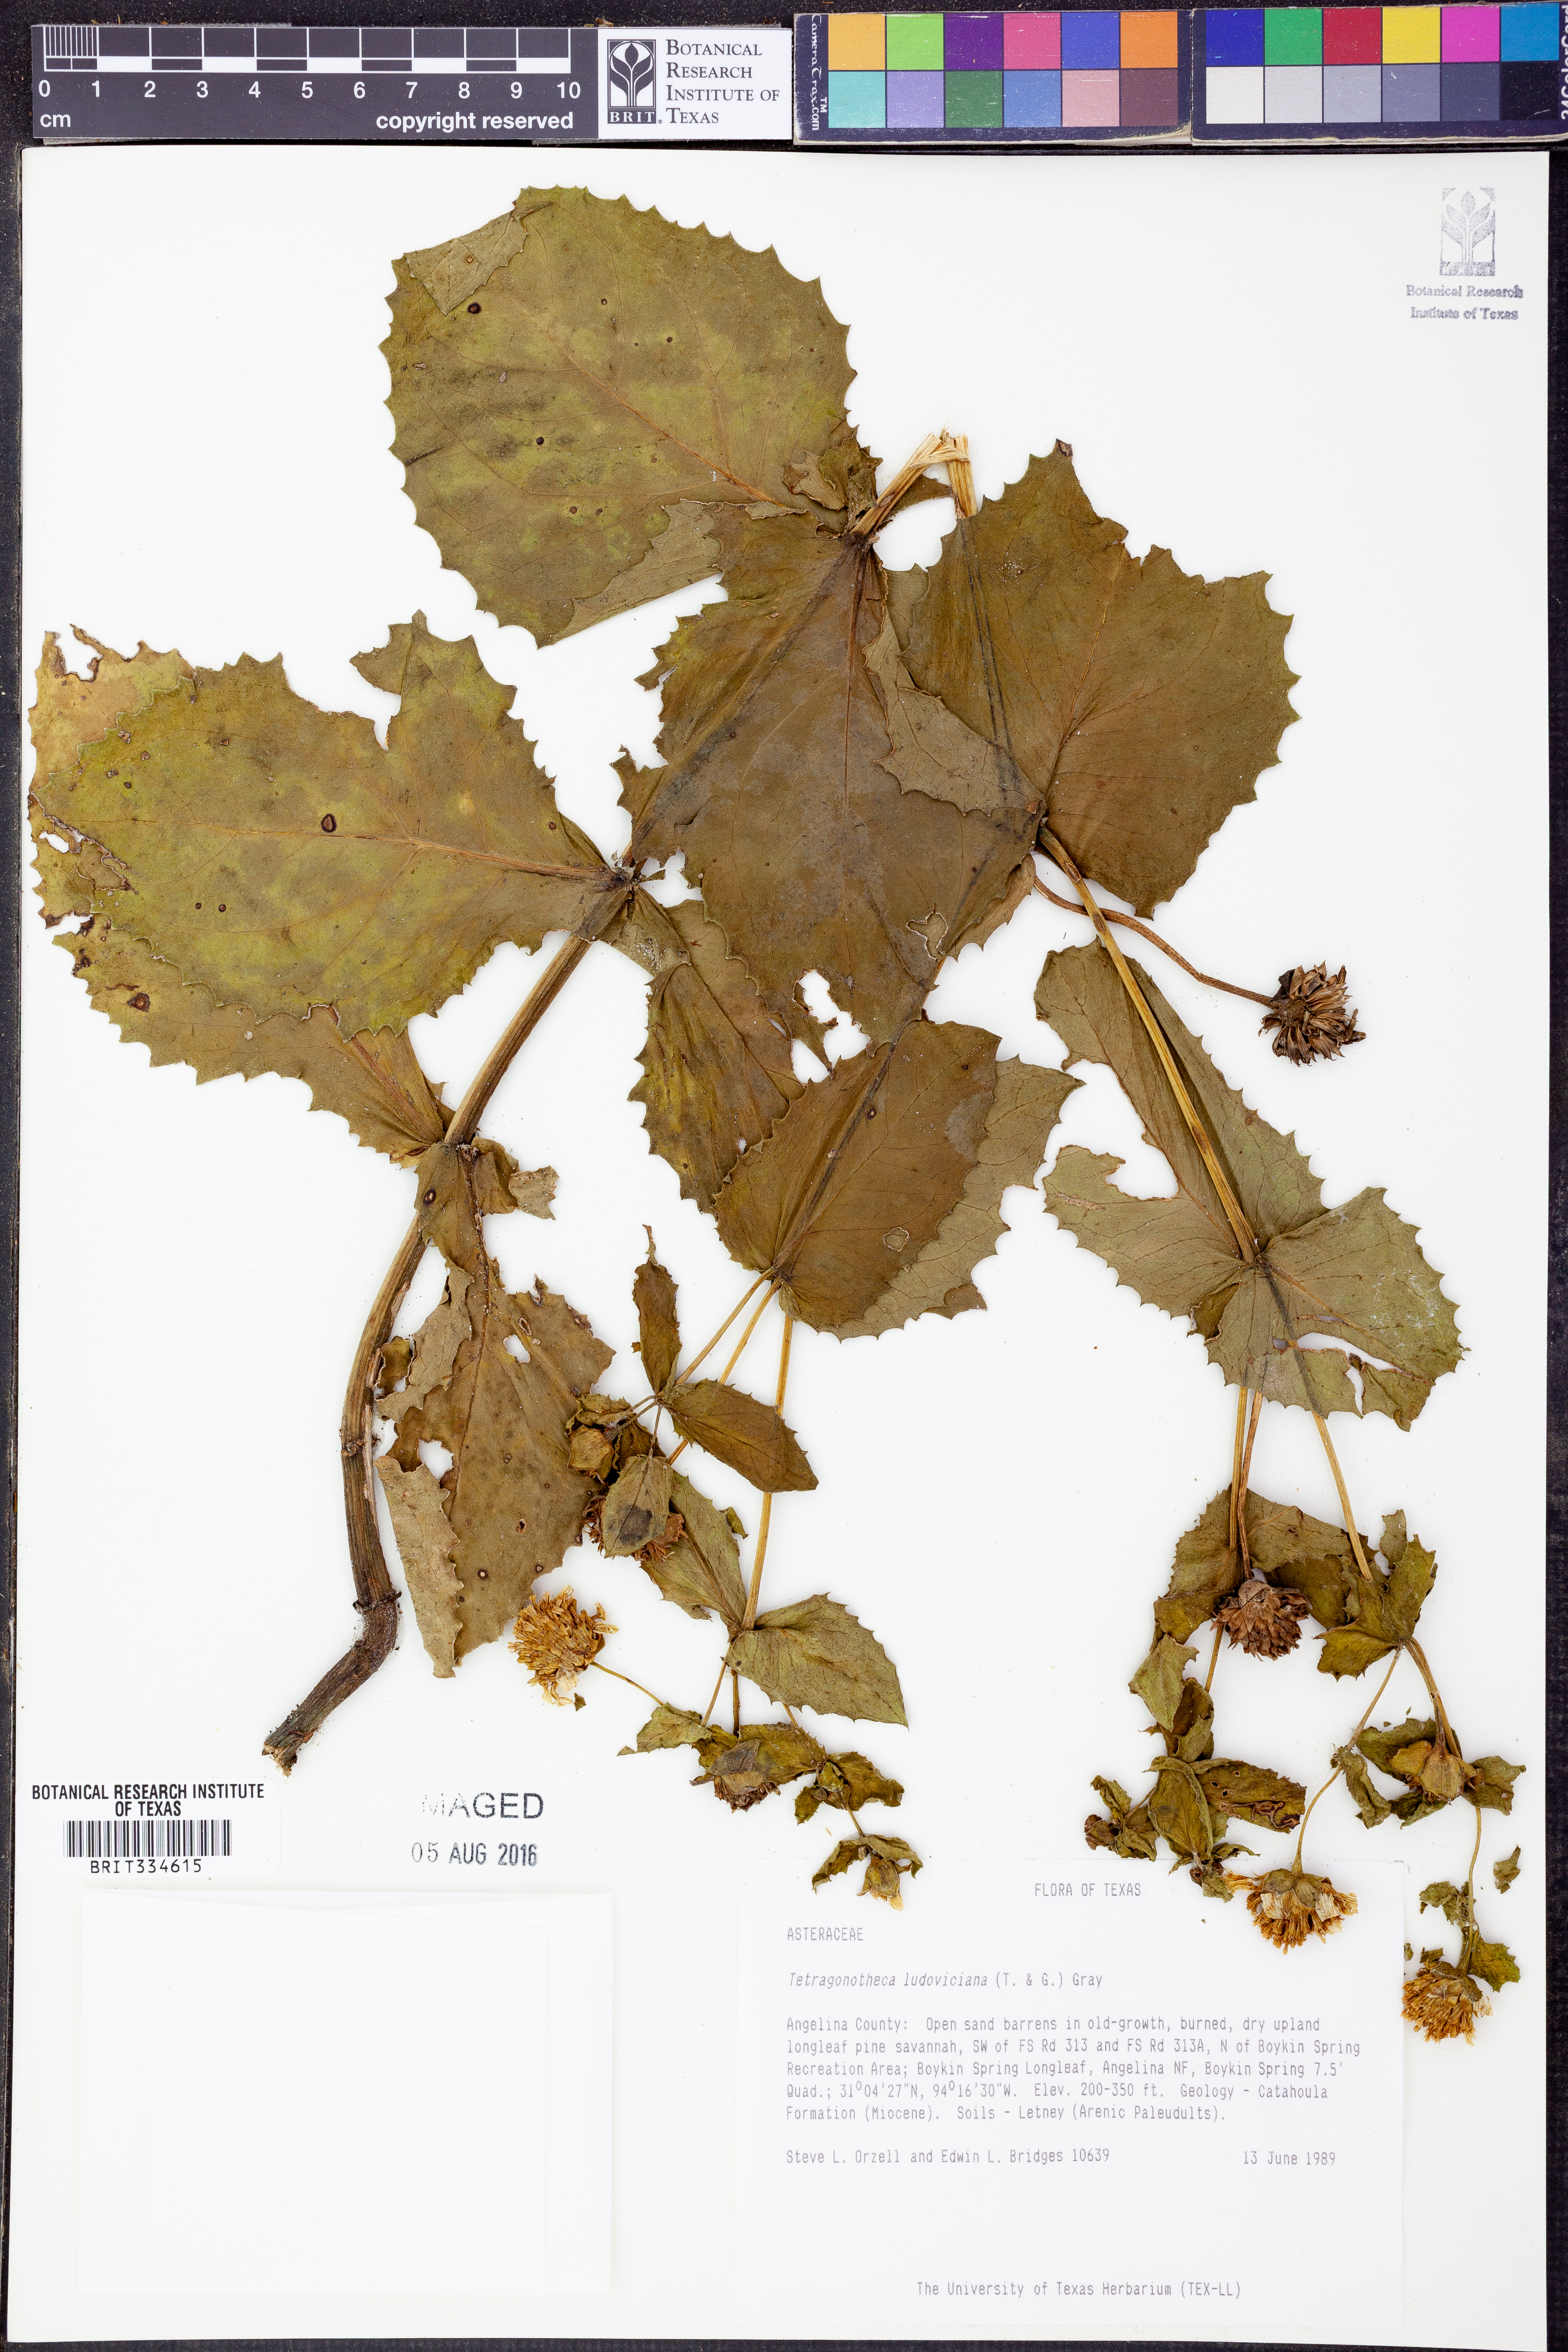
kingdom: Plantae
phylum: Tracheophyta
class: Magnoliopsida
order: Asterales
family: Asteraceae
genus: Tetragonotheca
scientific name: Tetragonotheca ludoviciana
